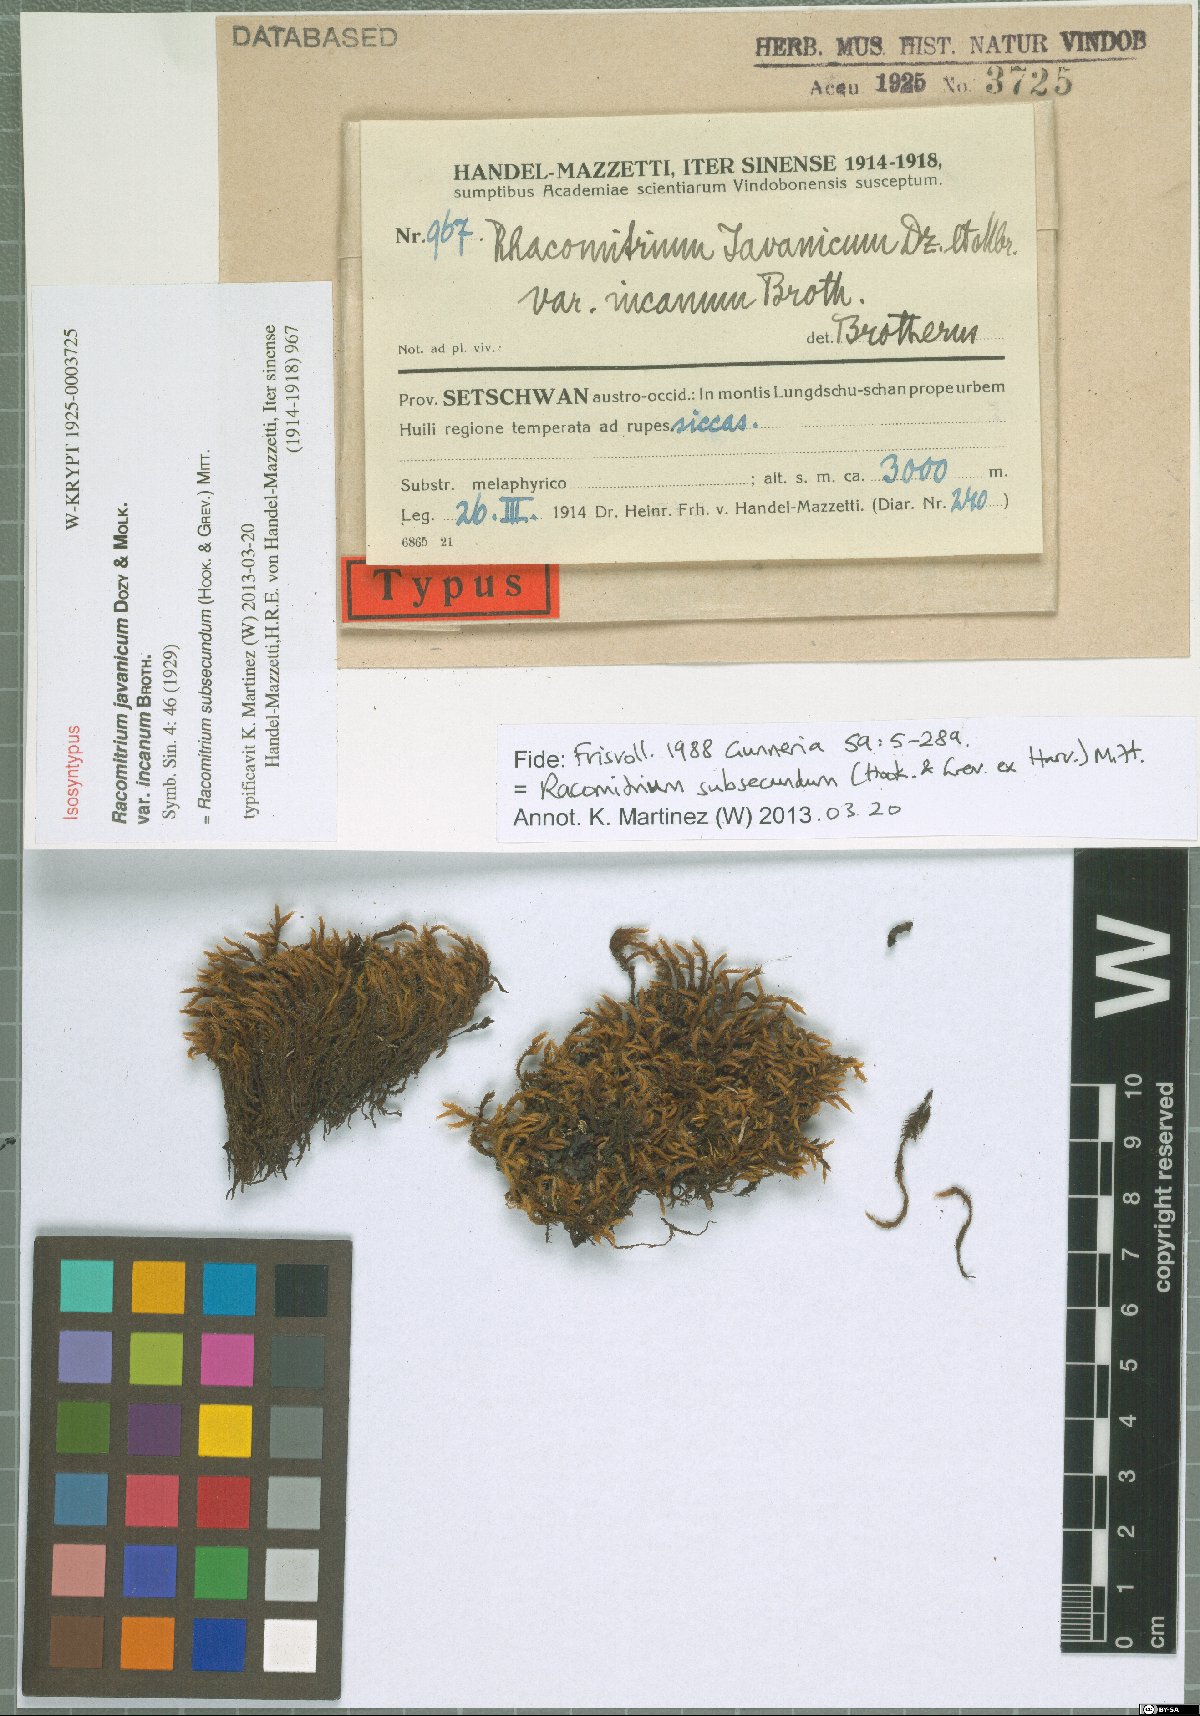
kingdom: Plantae
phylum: Bryophyta
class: Bryopsida
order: Grimmiales
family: Grimmiaceae
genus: Bucklandiella
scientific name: Bucklandiella subsecunda
